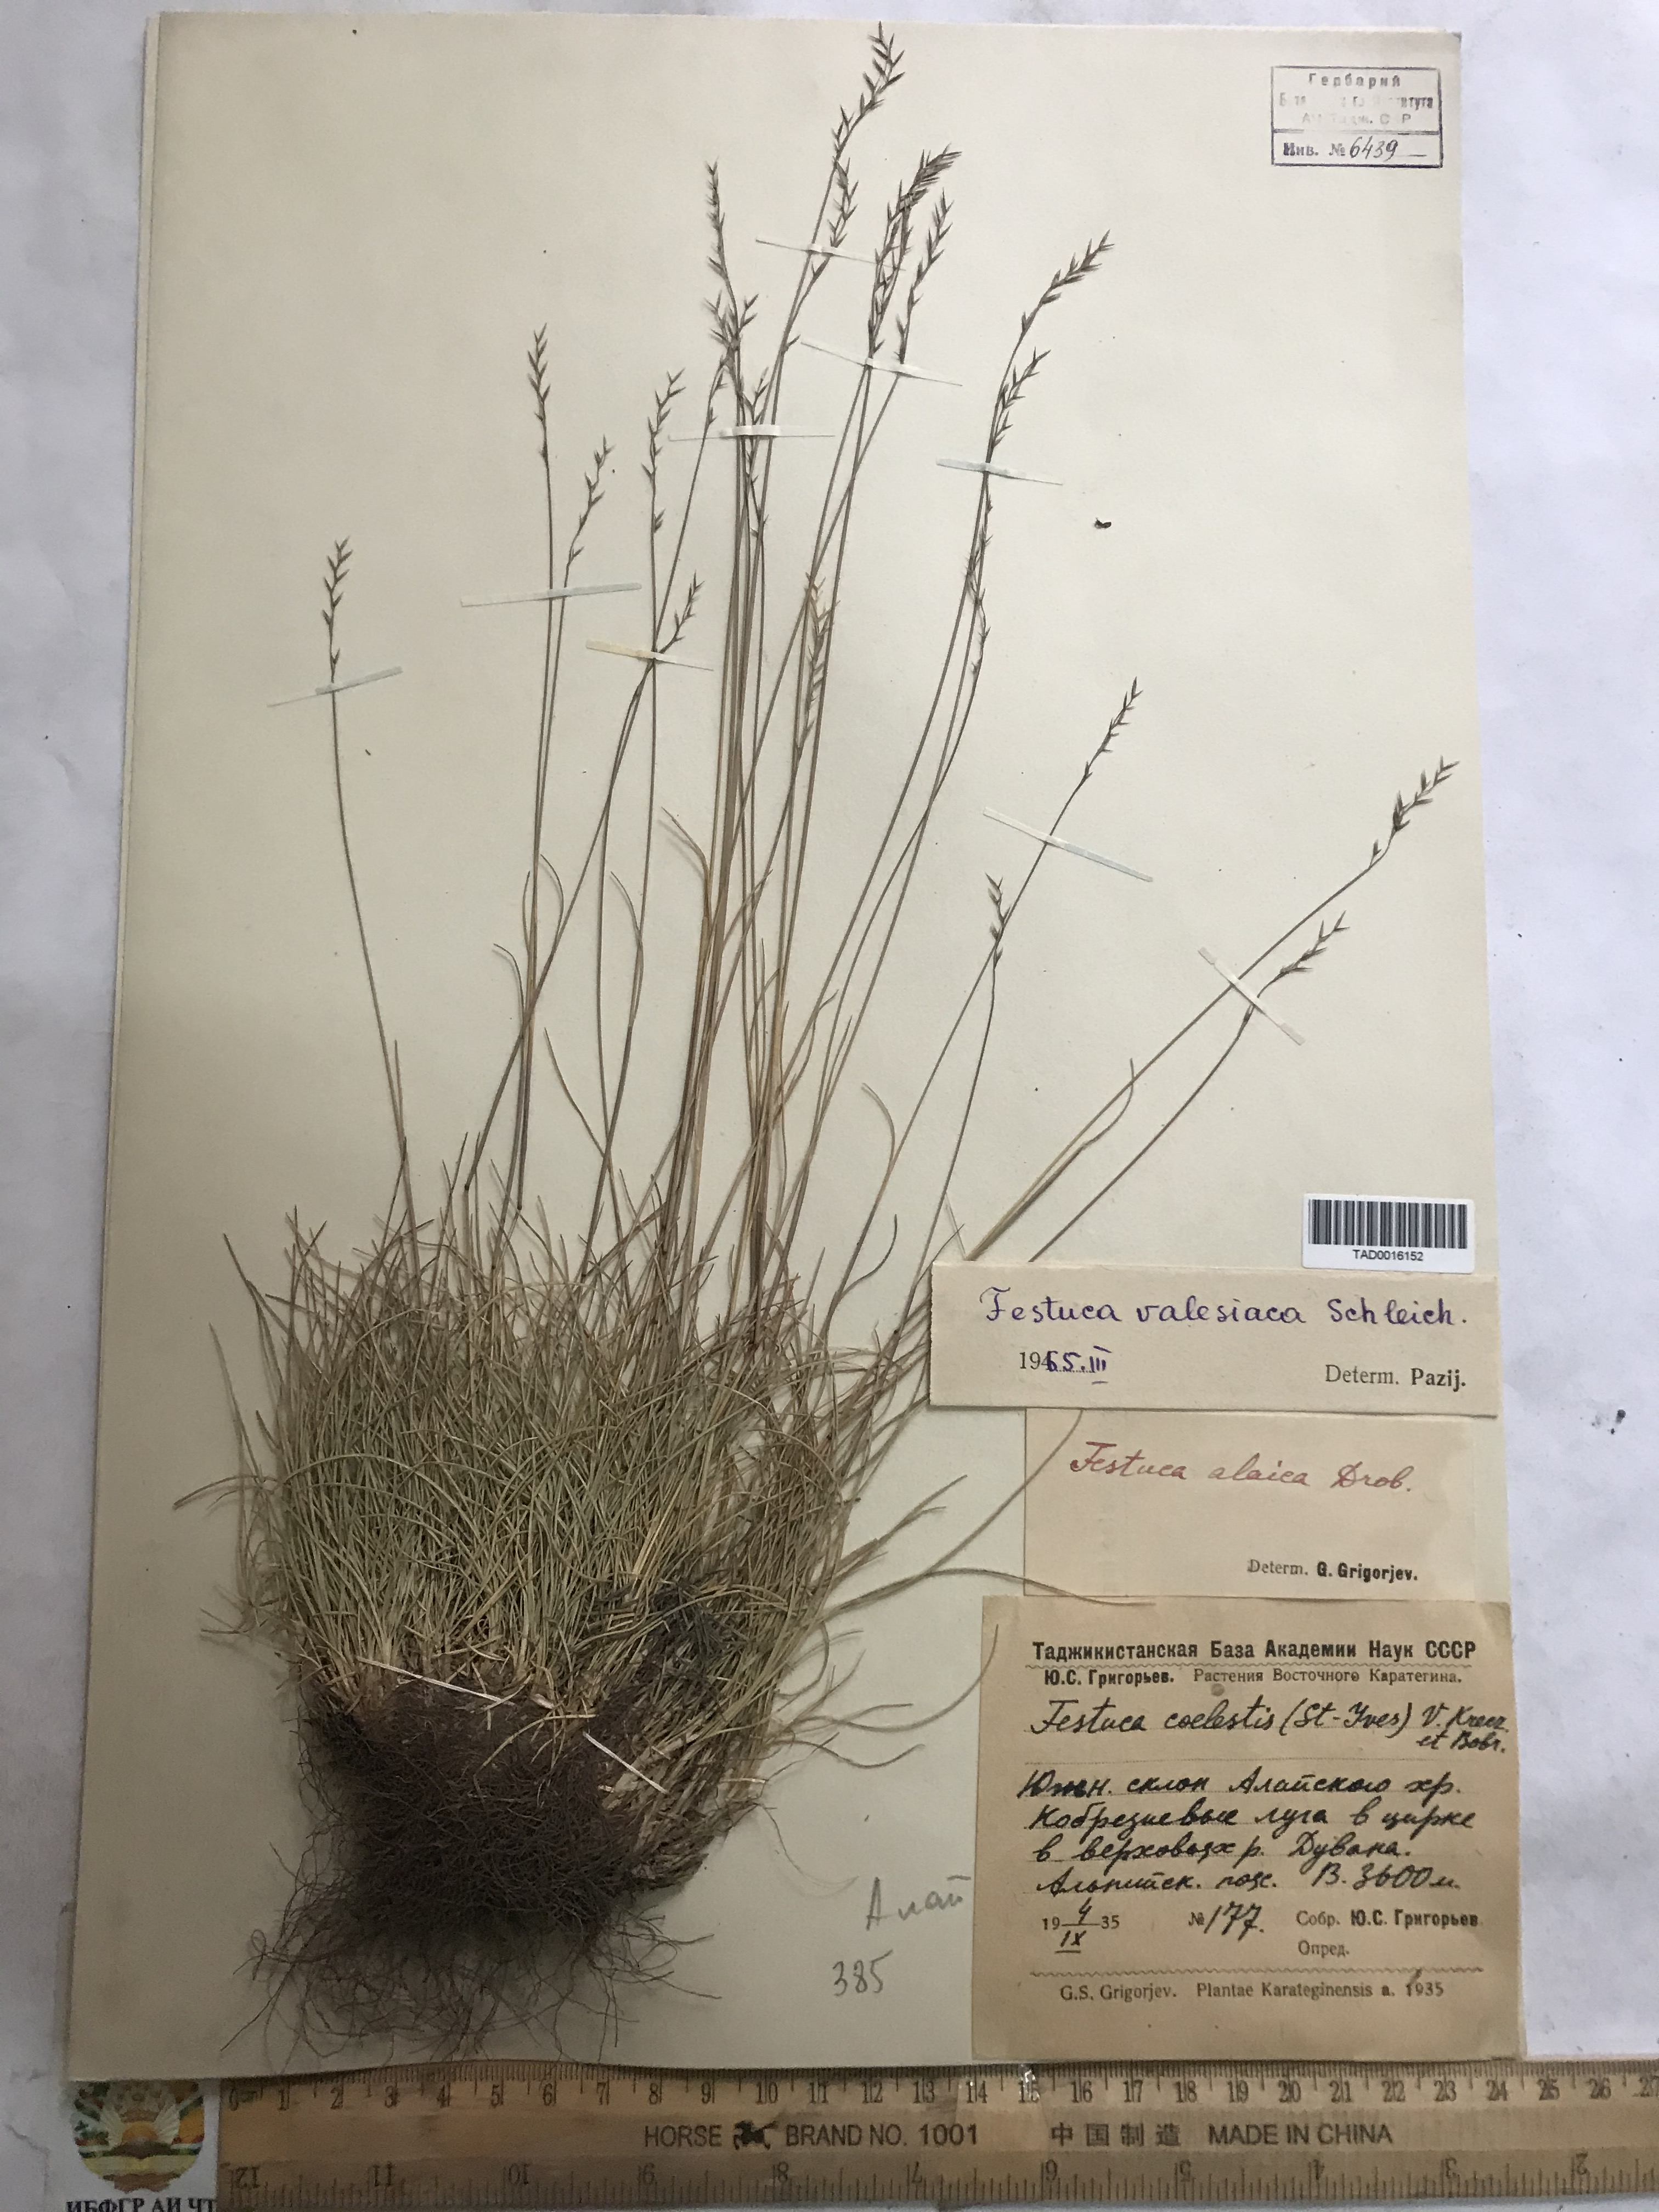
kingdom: Plantae
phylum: Tracheophyta
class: Liliopsida
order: Poales
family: Poaceae
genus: Festuca
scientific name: Festuca valesiaca
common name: Volga fescue
